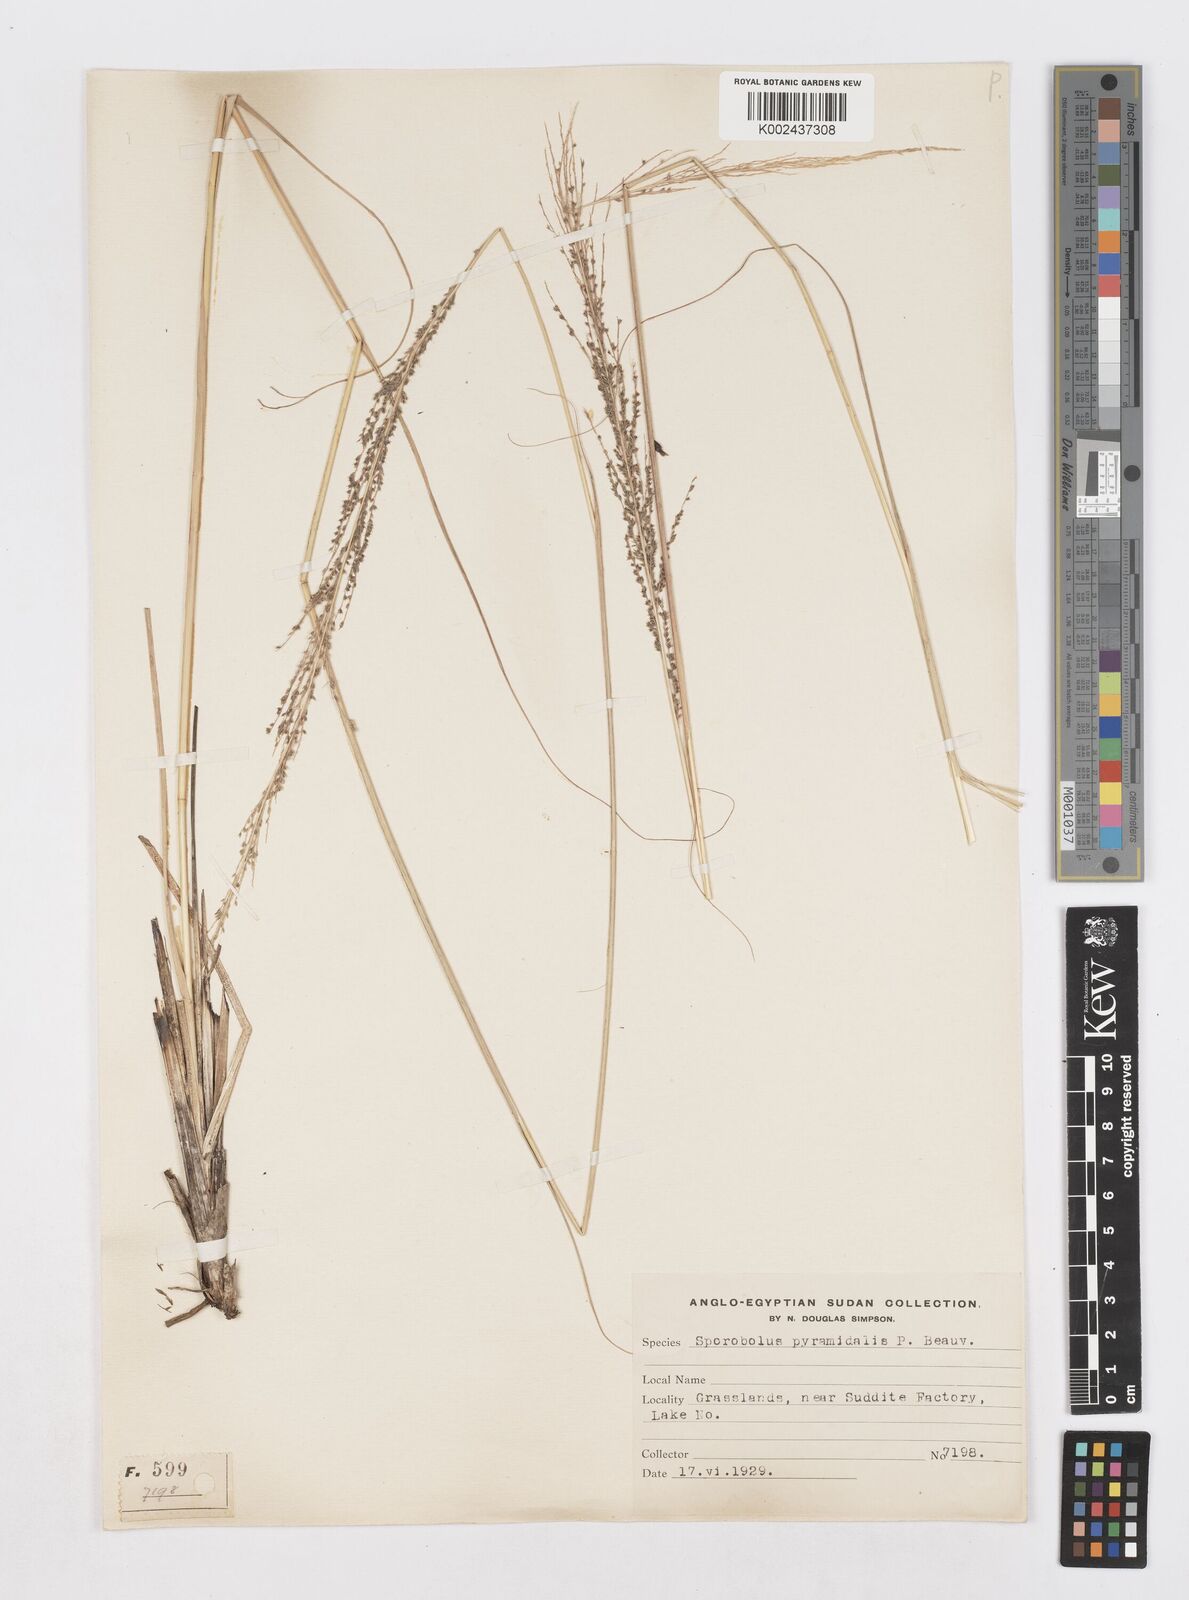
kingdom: Plantae
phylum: Tracheophyta
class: Liliopsida
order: Poales
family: Poaceae
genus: Sporobolus
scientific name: Sporobolus pyramidalis
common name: West indian dropseed
